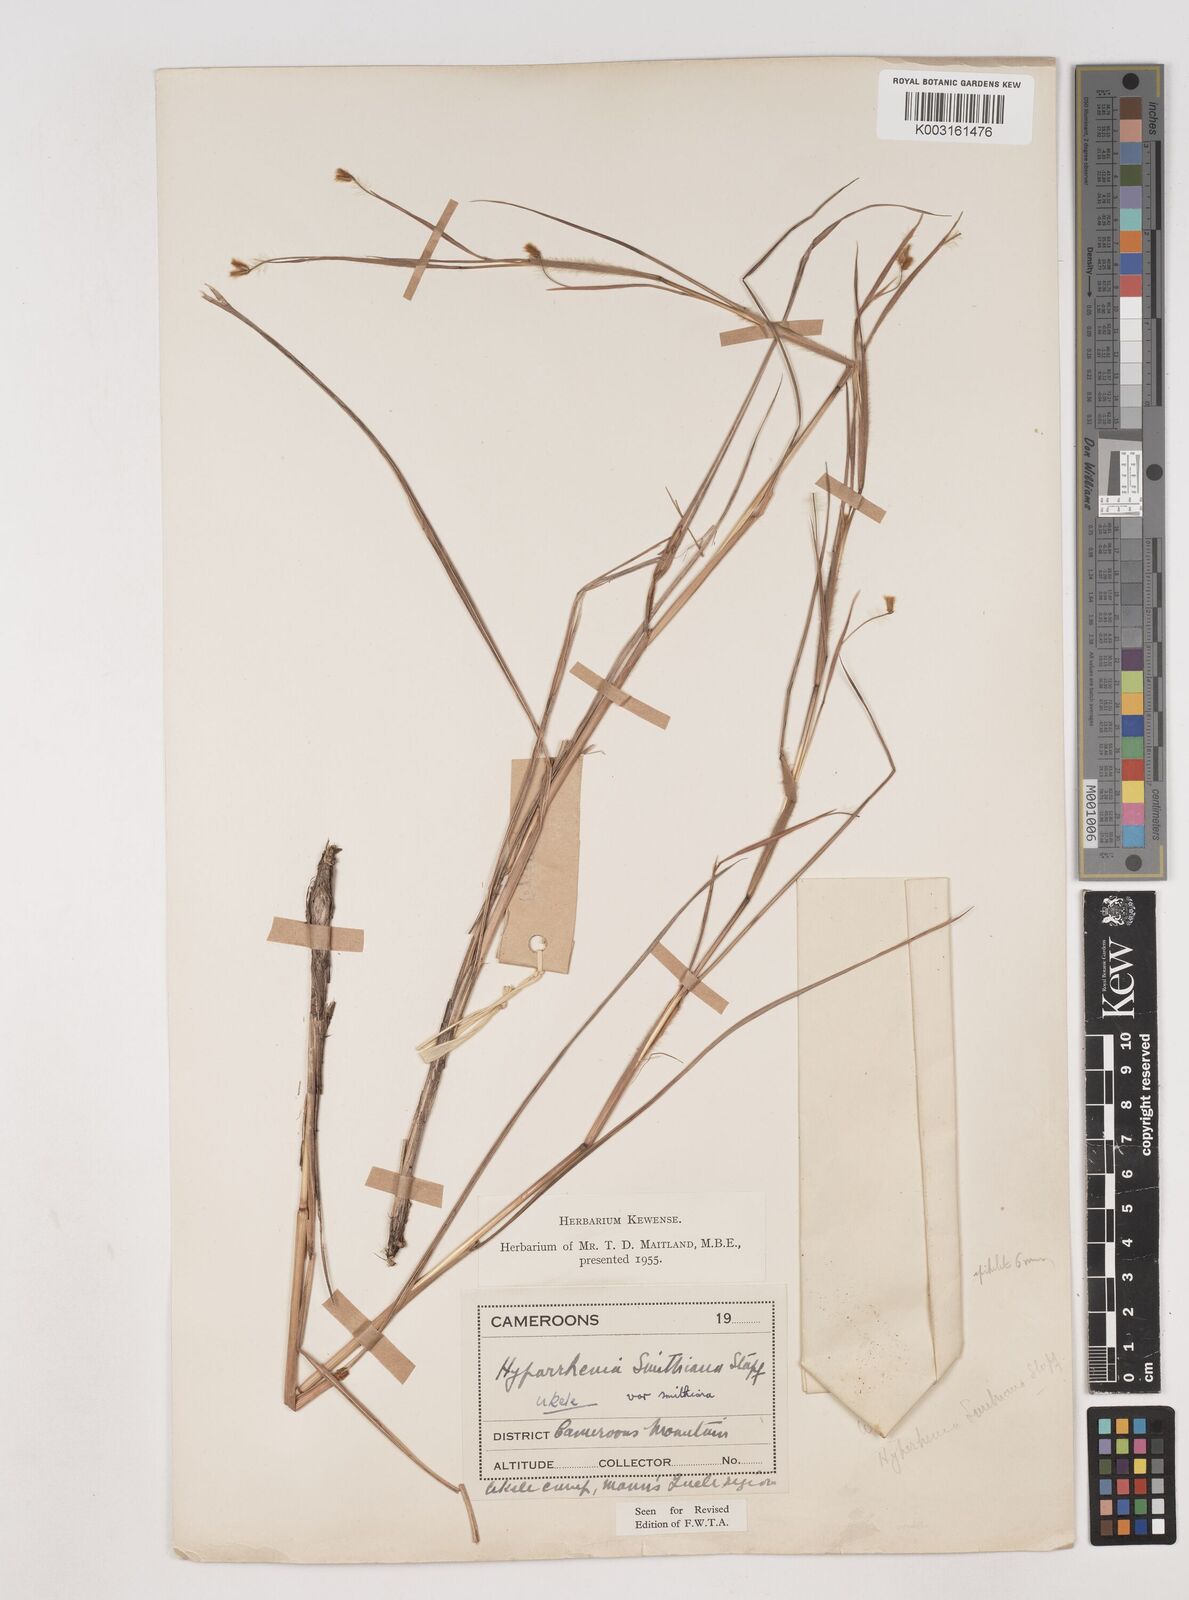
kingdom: Plantae
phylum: Tracheophyta
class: Liliopsida
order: Poales
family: Poaceae
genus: Hyparrhenia
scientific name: Hyparrhenia smithiana
